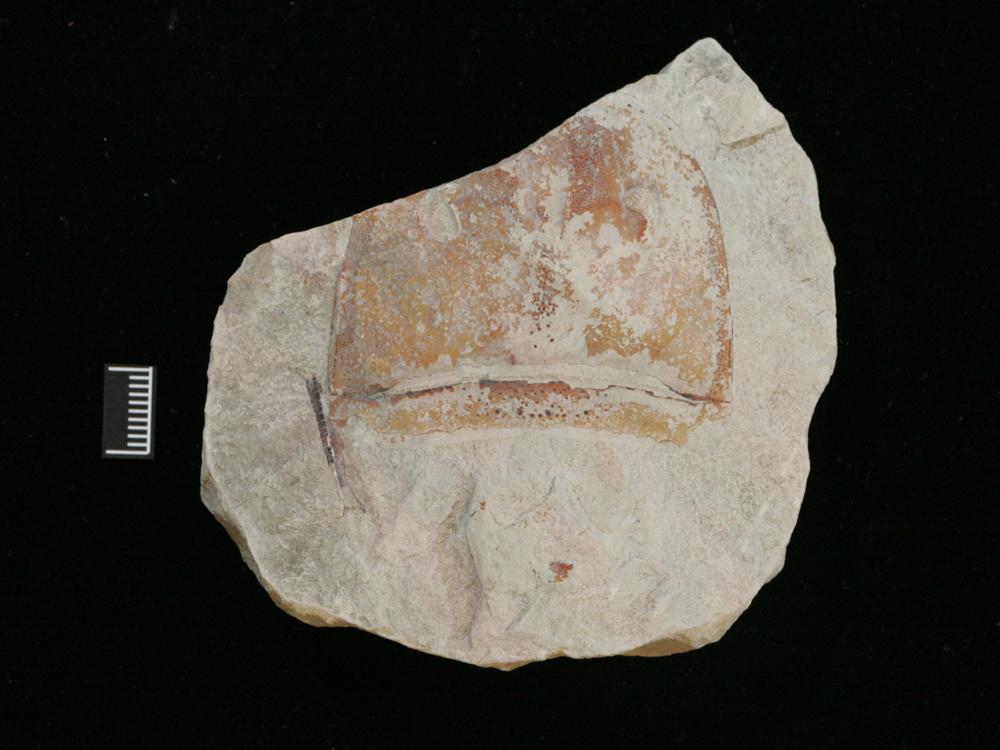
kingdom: Animalia
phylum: Arthropoda
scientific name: Arthropoda
